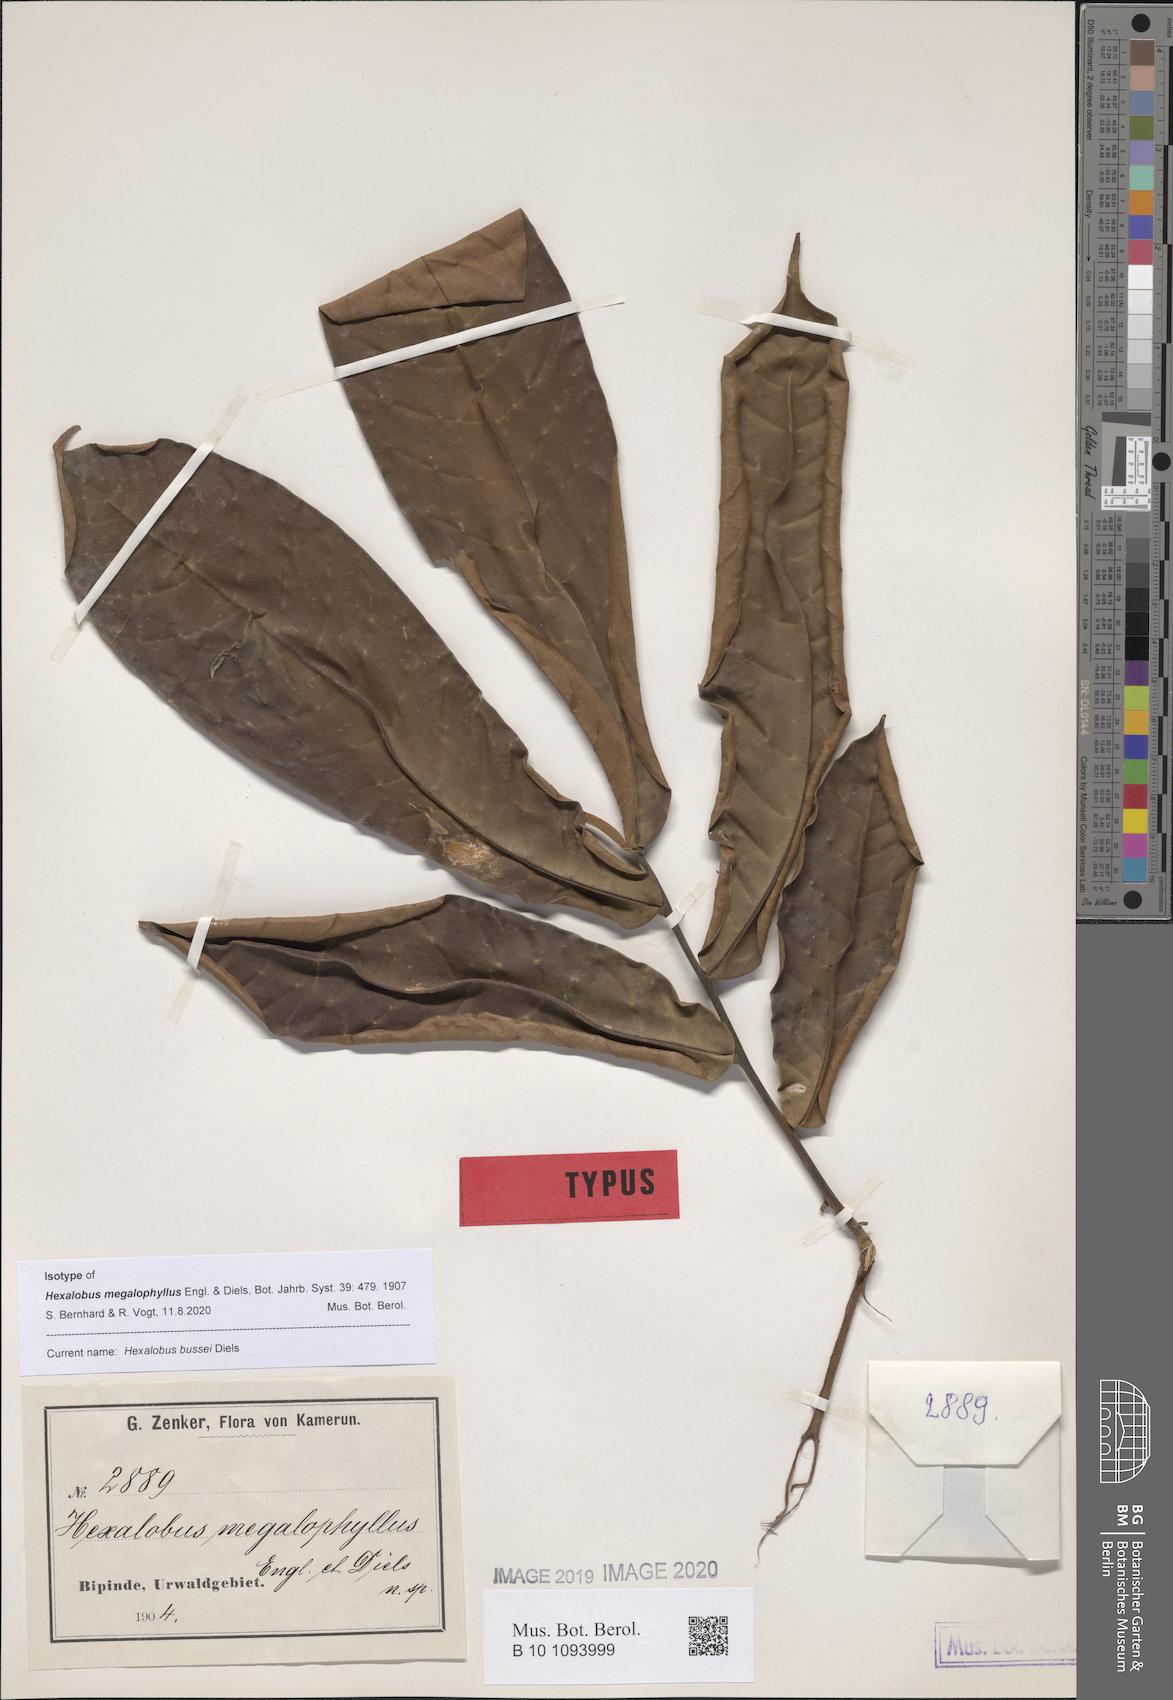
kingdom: Plantae
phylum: Tracheophyta
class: Magnoliopsida
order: Magnoliales
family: Annonaceae
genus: Hexalobus
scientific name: Hexalobus bussei
